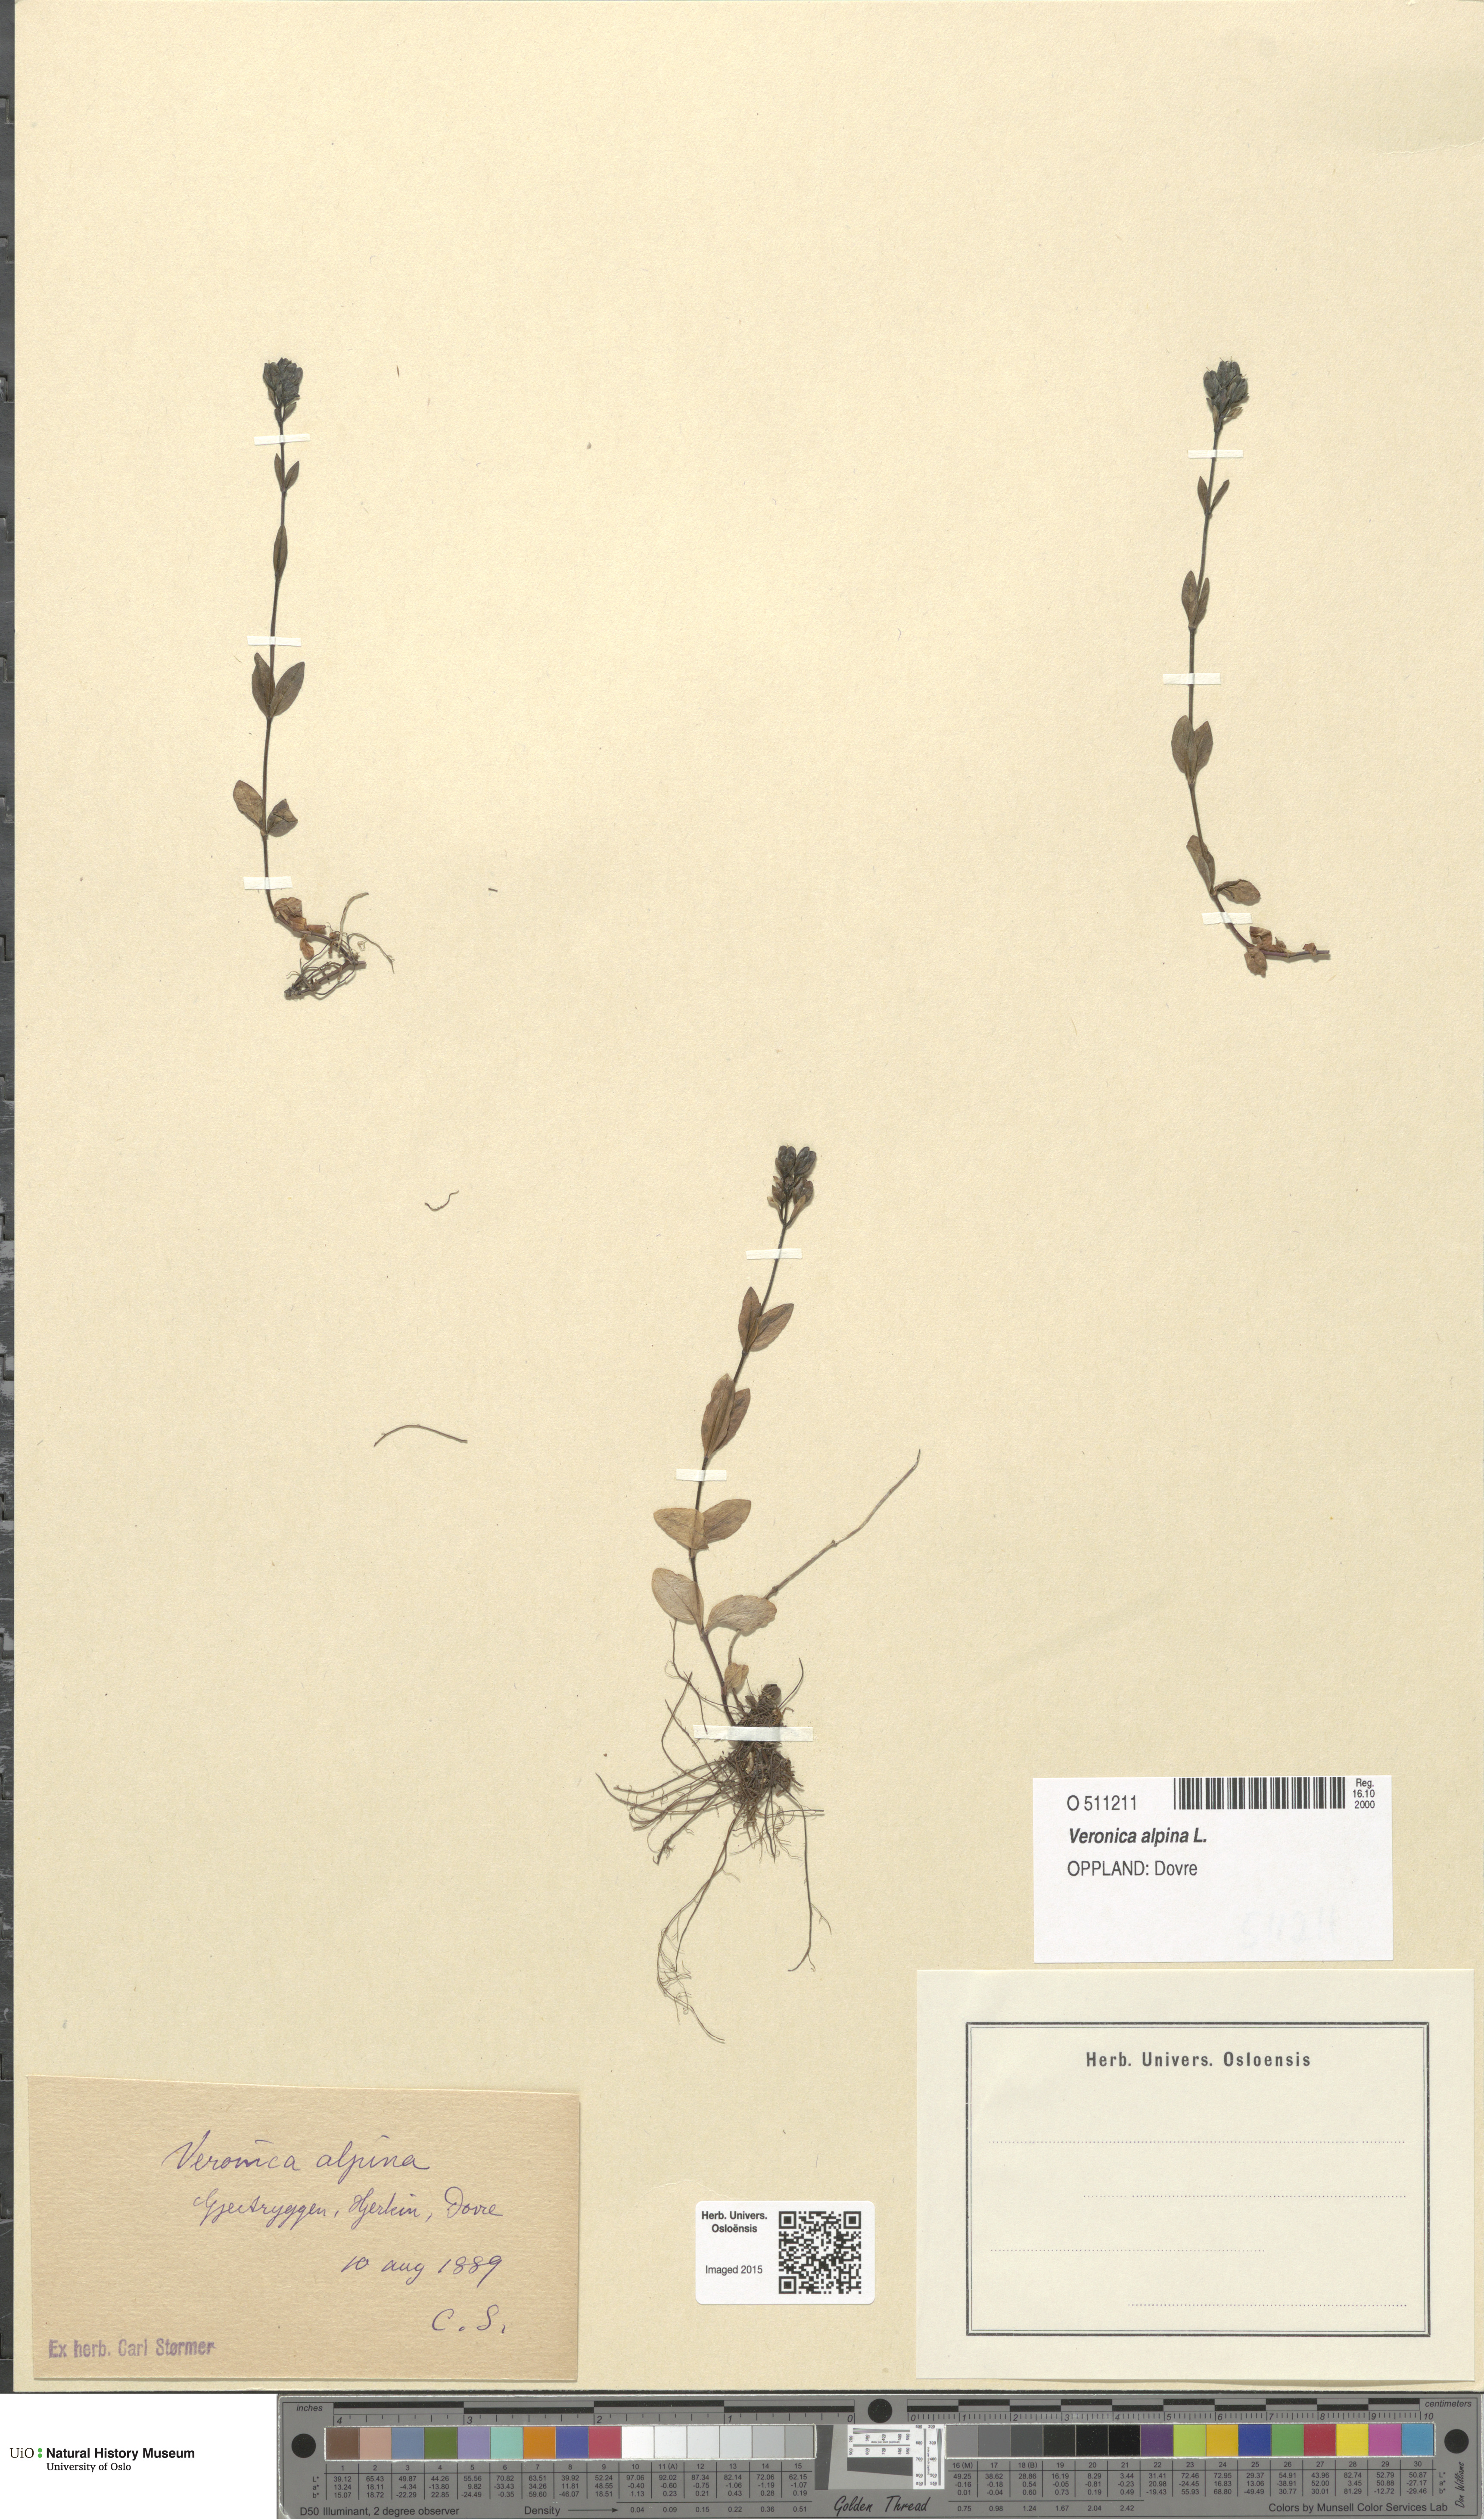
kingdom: Plantae
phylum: Tracheophyta
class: Magnoliopsida
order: Lamiales
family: Plantaginaceae
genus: Veronica
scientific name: Veronica alpina
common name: Alpine speedwell
